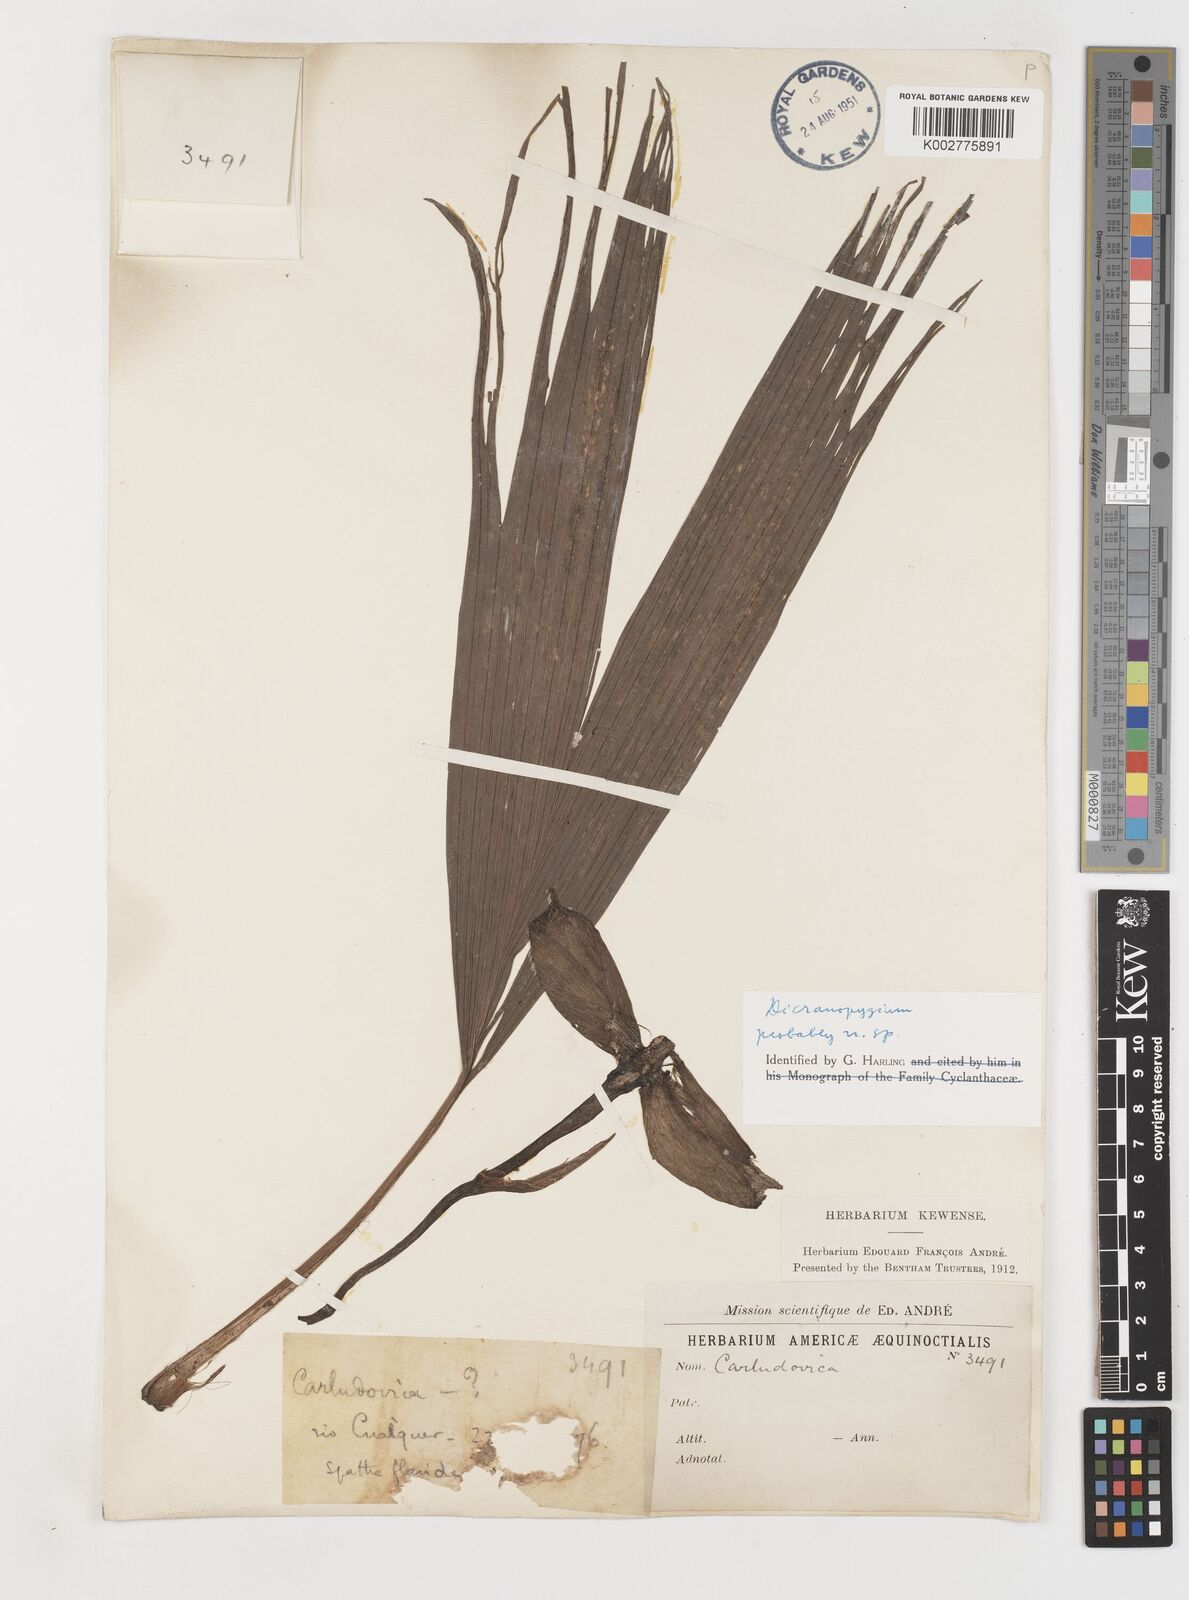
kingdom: Plantae
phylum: Tracheophyta
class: Liliopsida
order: Pandanales
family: Cyclanthaceae
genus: Dicranopygium
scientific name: Dicranopygium
